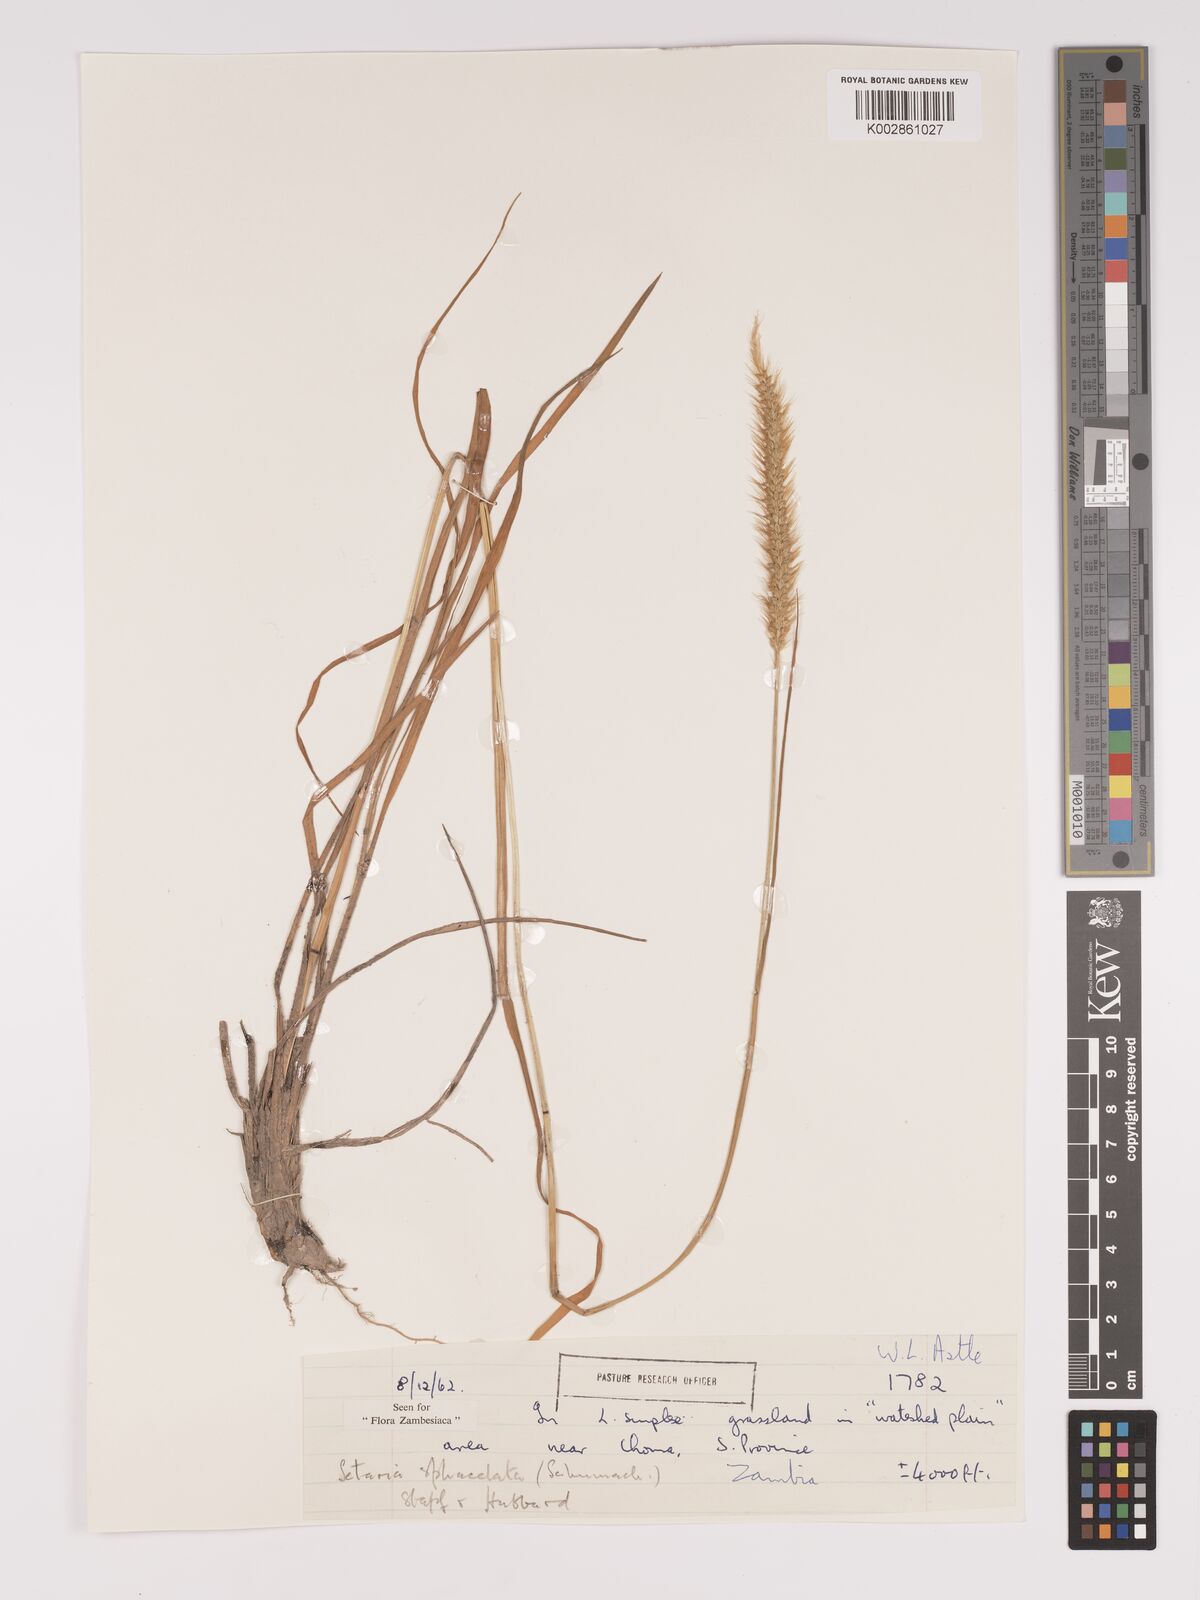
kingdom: Plantae
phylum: Tracheophyta
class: Liliopsida
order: Poales
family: Poaceae
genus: Setaria
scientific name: Setaria sphacelata
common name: African bristlegrass
